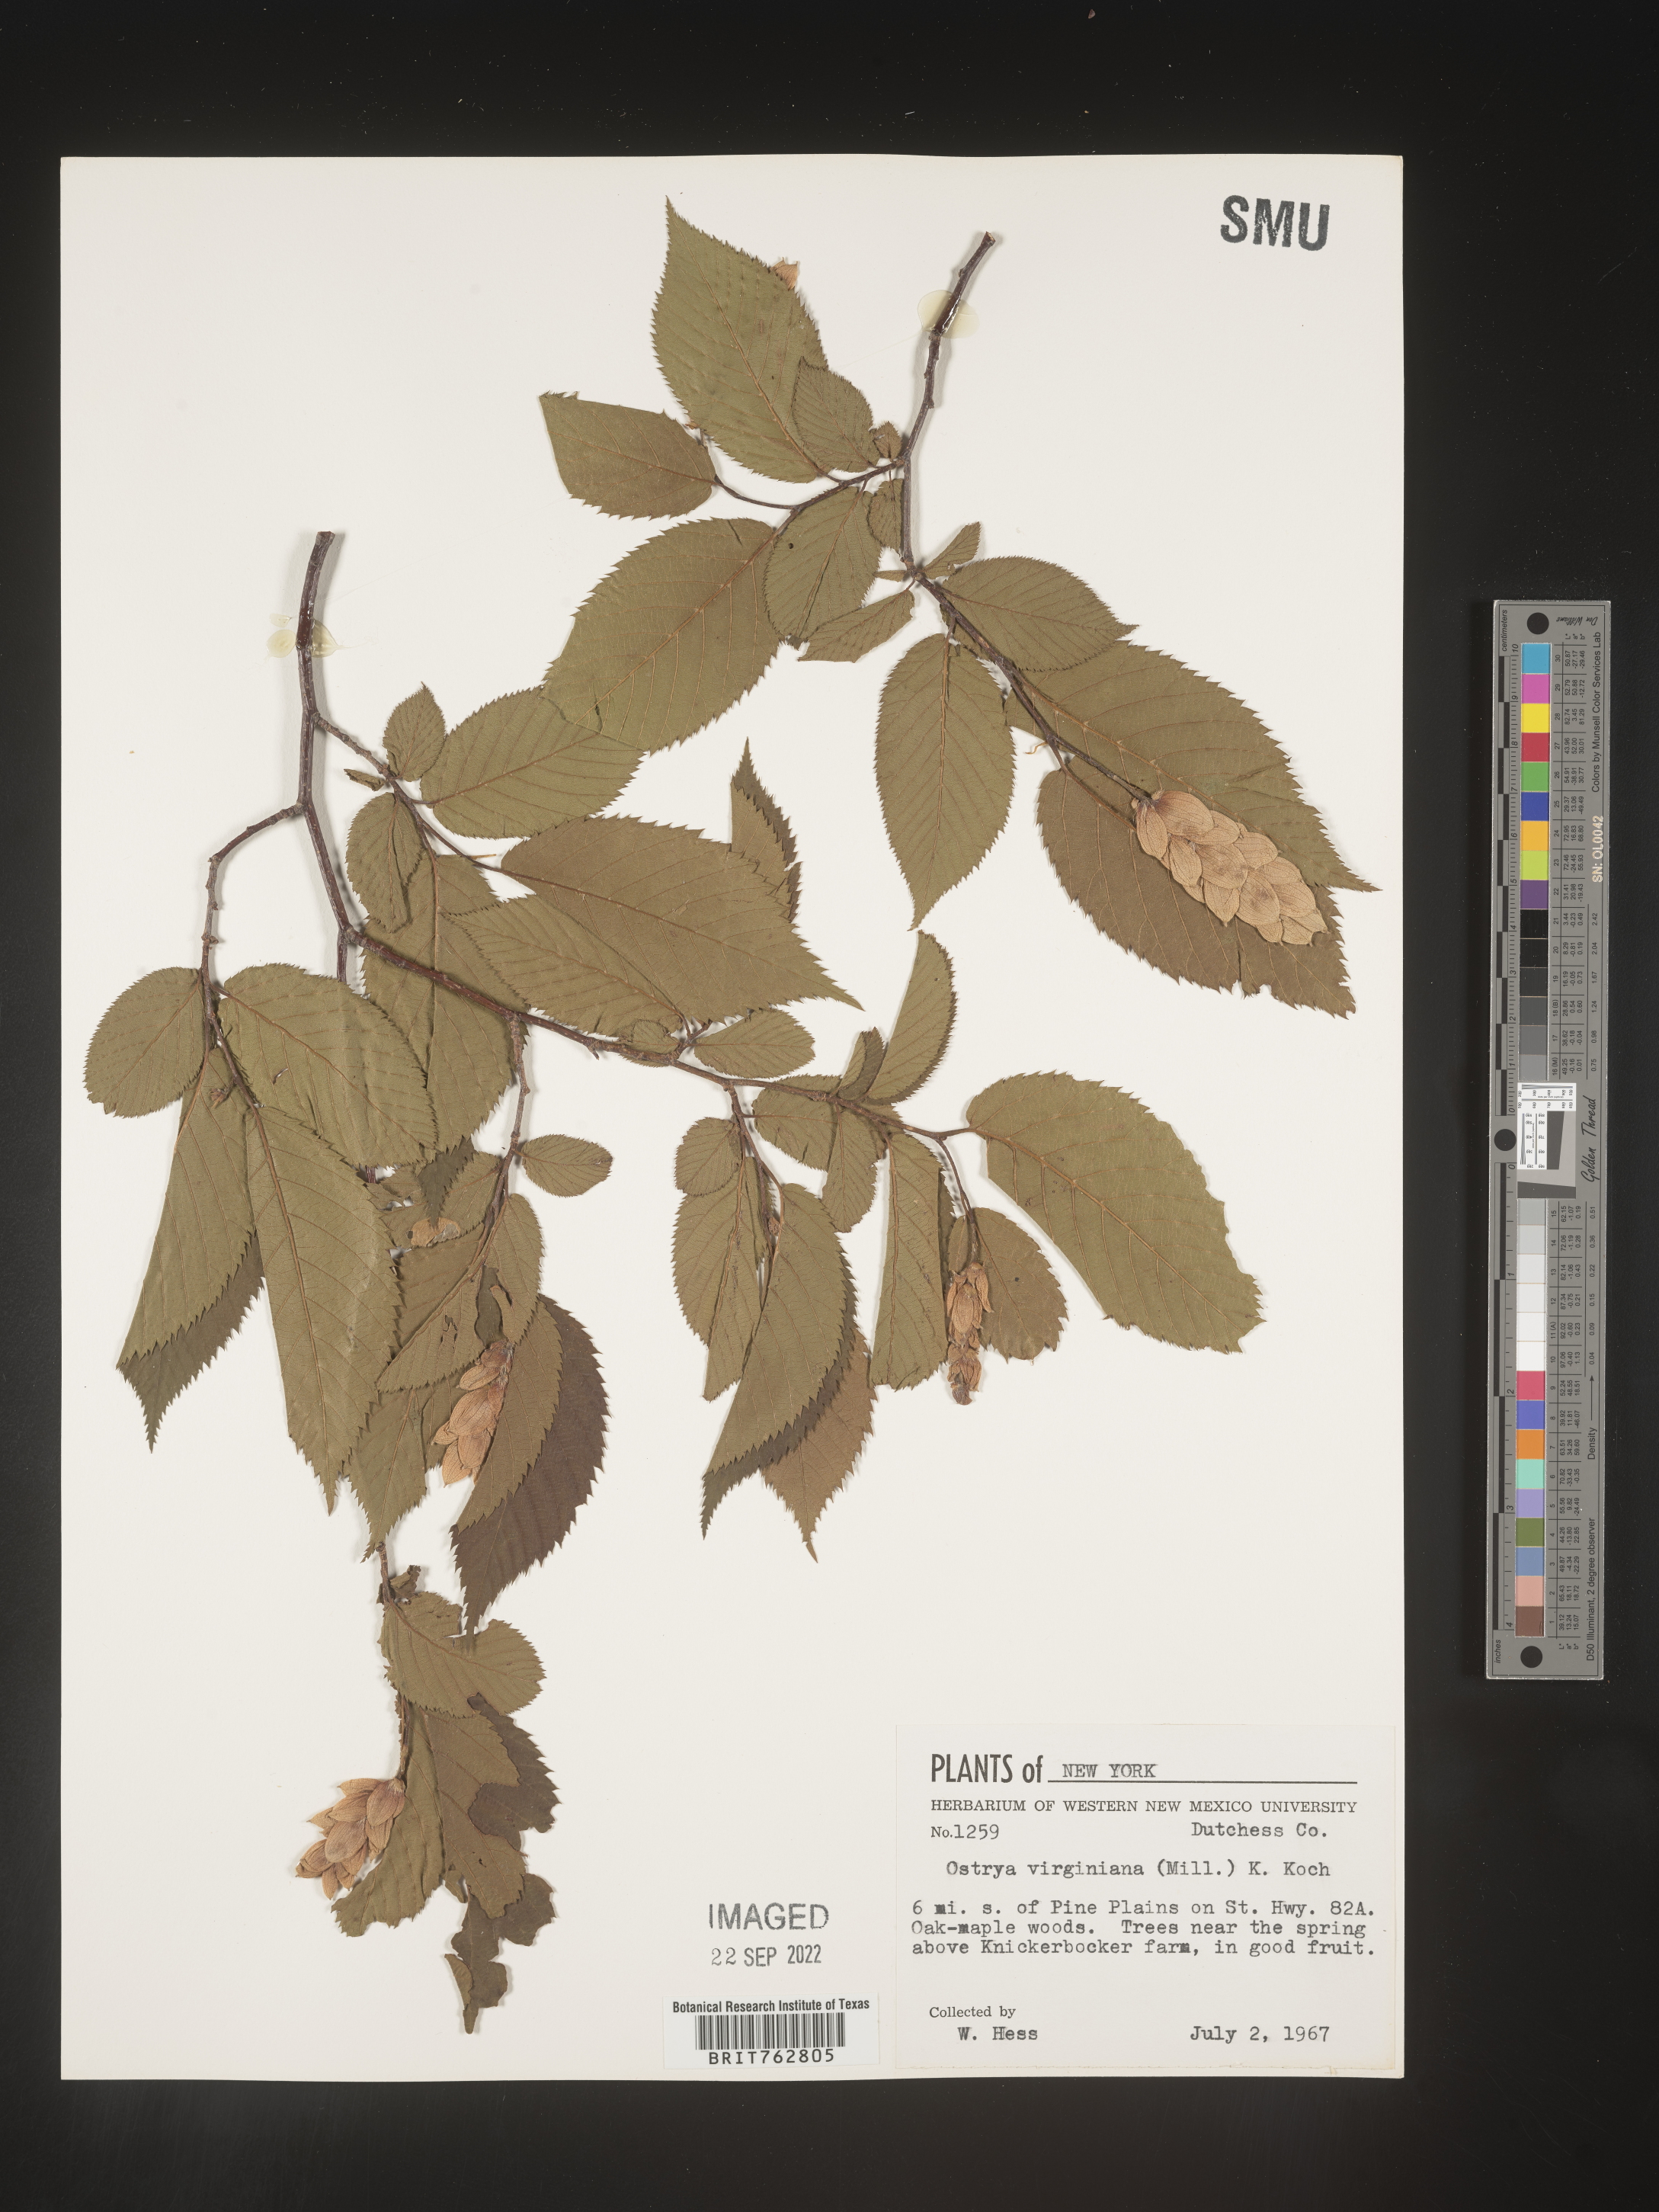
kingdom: Plantae
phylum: Tracheophyta
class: Magnoliopsida
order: Fagales
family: Betulaceae
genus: Ostrya
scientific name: Ostrya virginiana
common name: Ironwood
